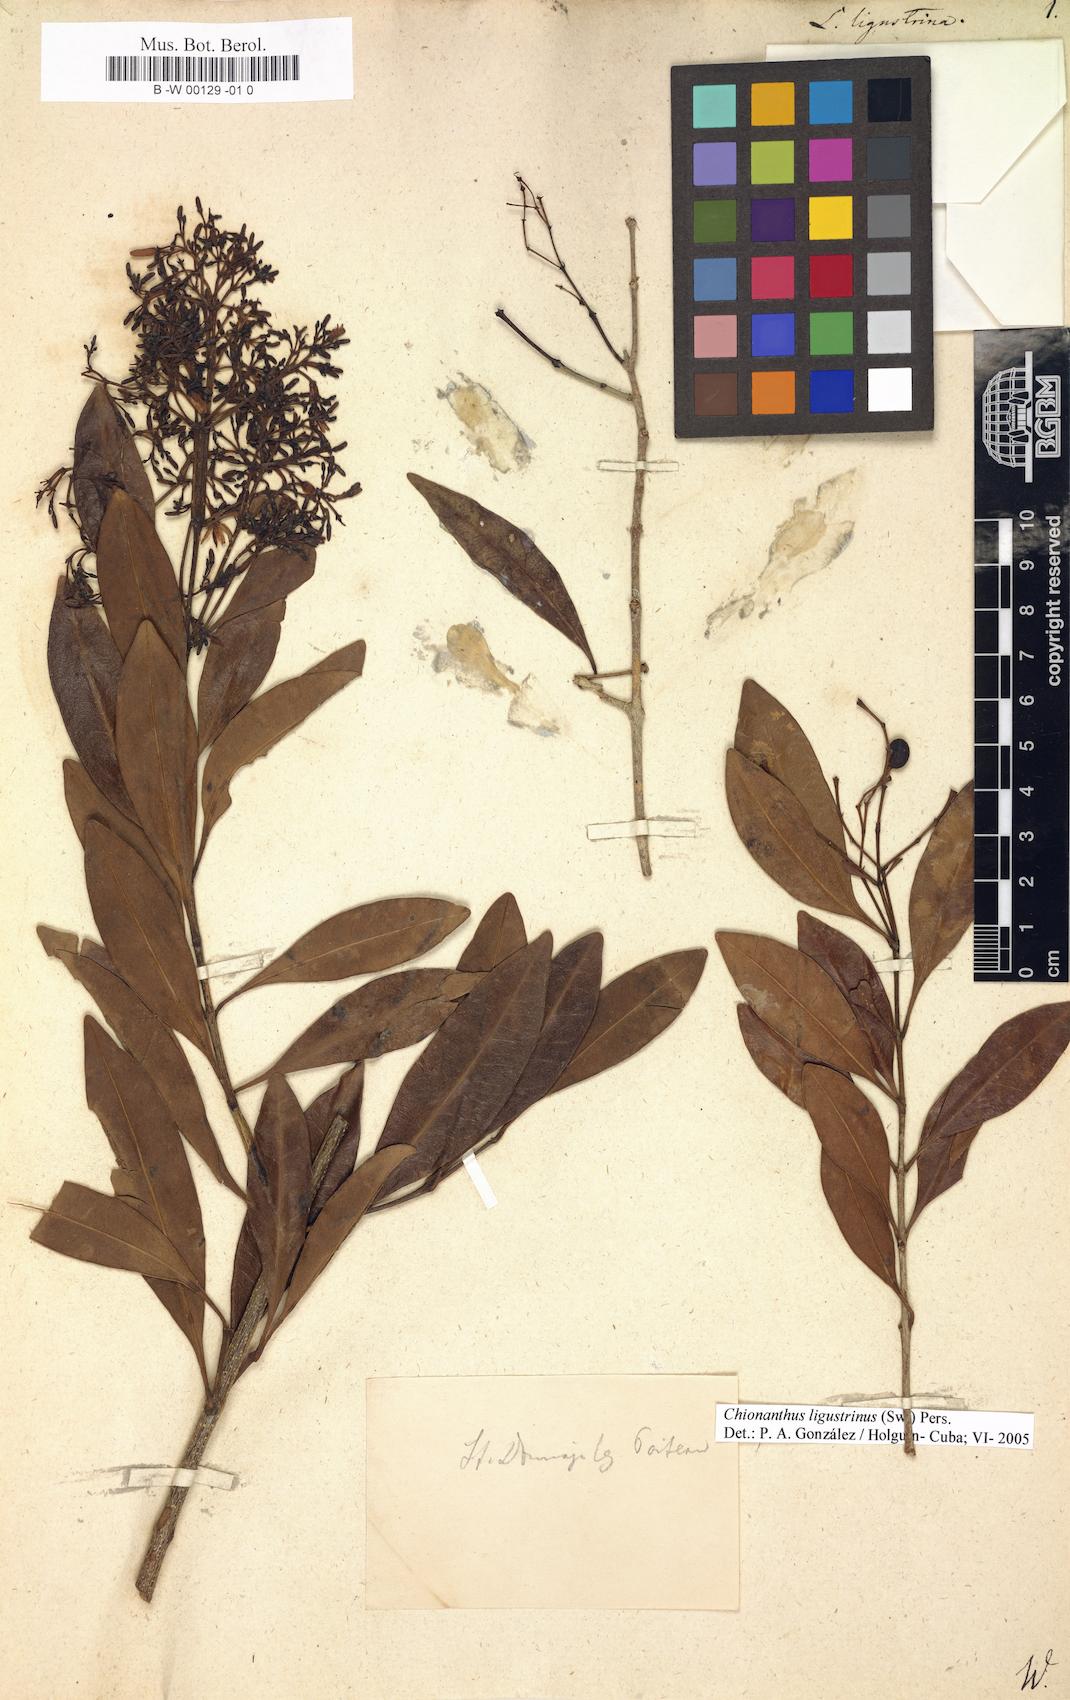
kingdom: Plantae
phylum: Tracheophyta
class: Magnoliopsida
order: Lamiales
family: Oleaceae
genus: Chionanthus
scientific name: Chionanthus ligustrinus
